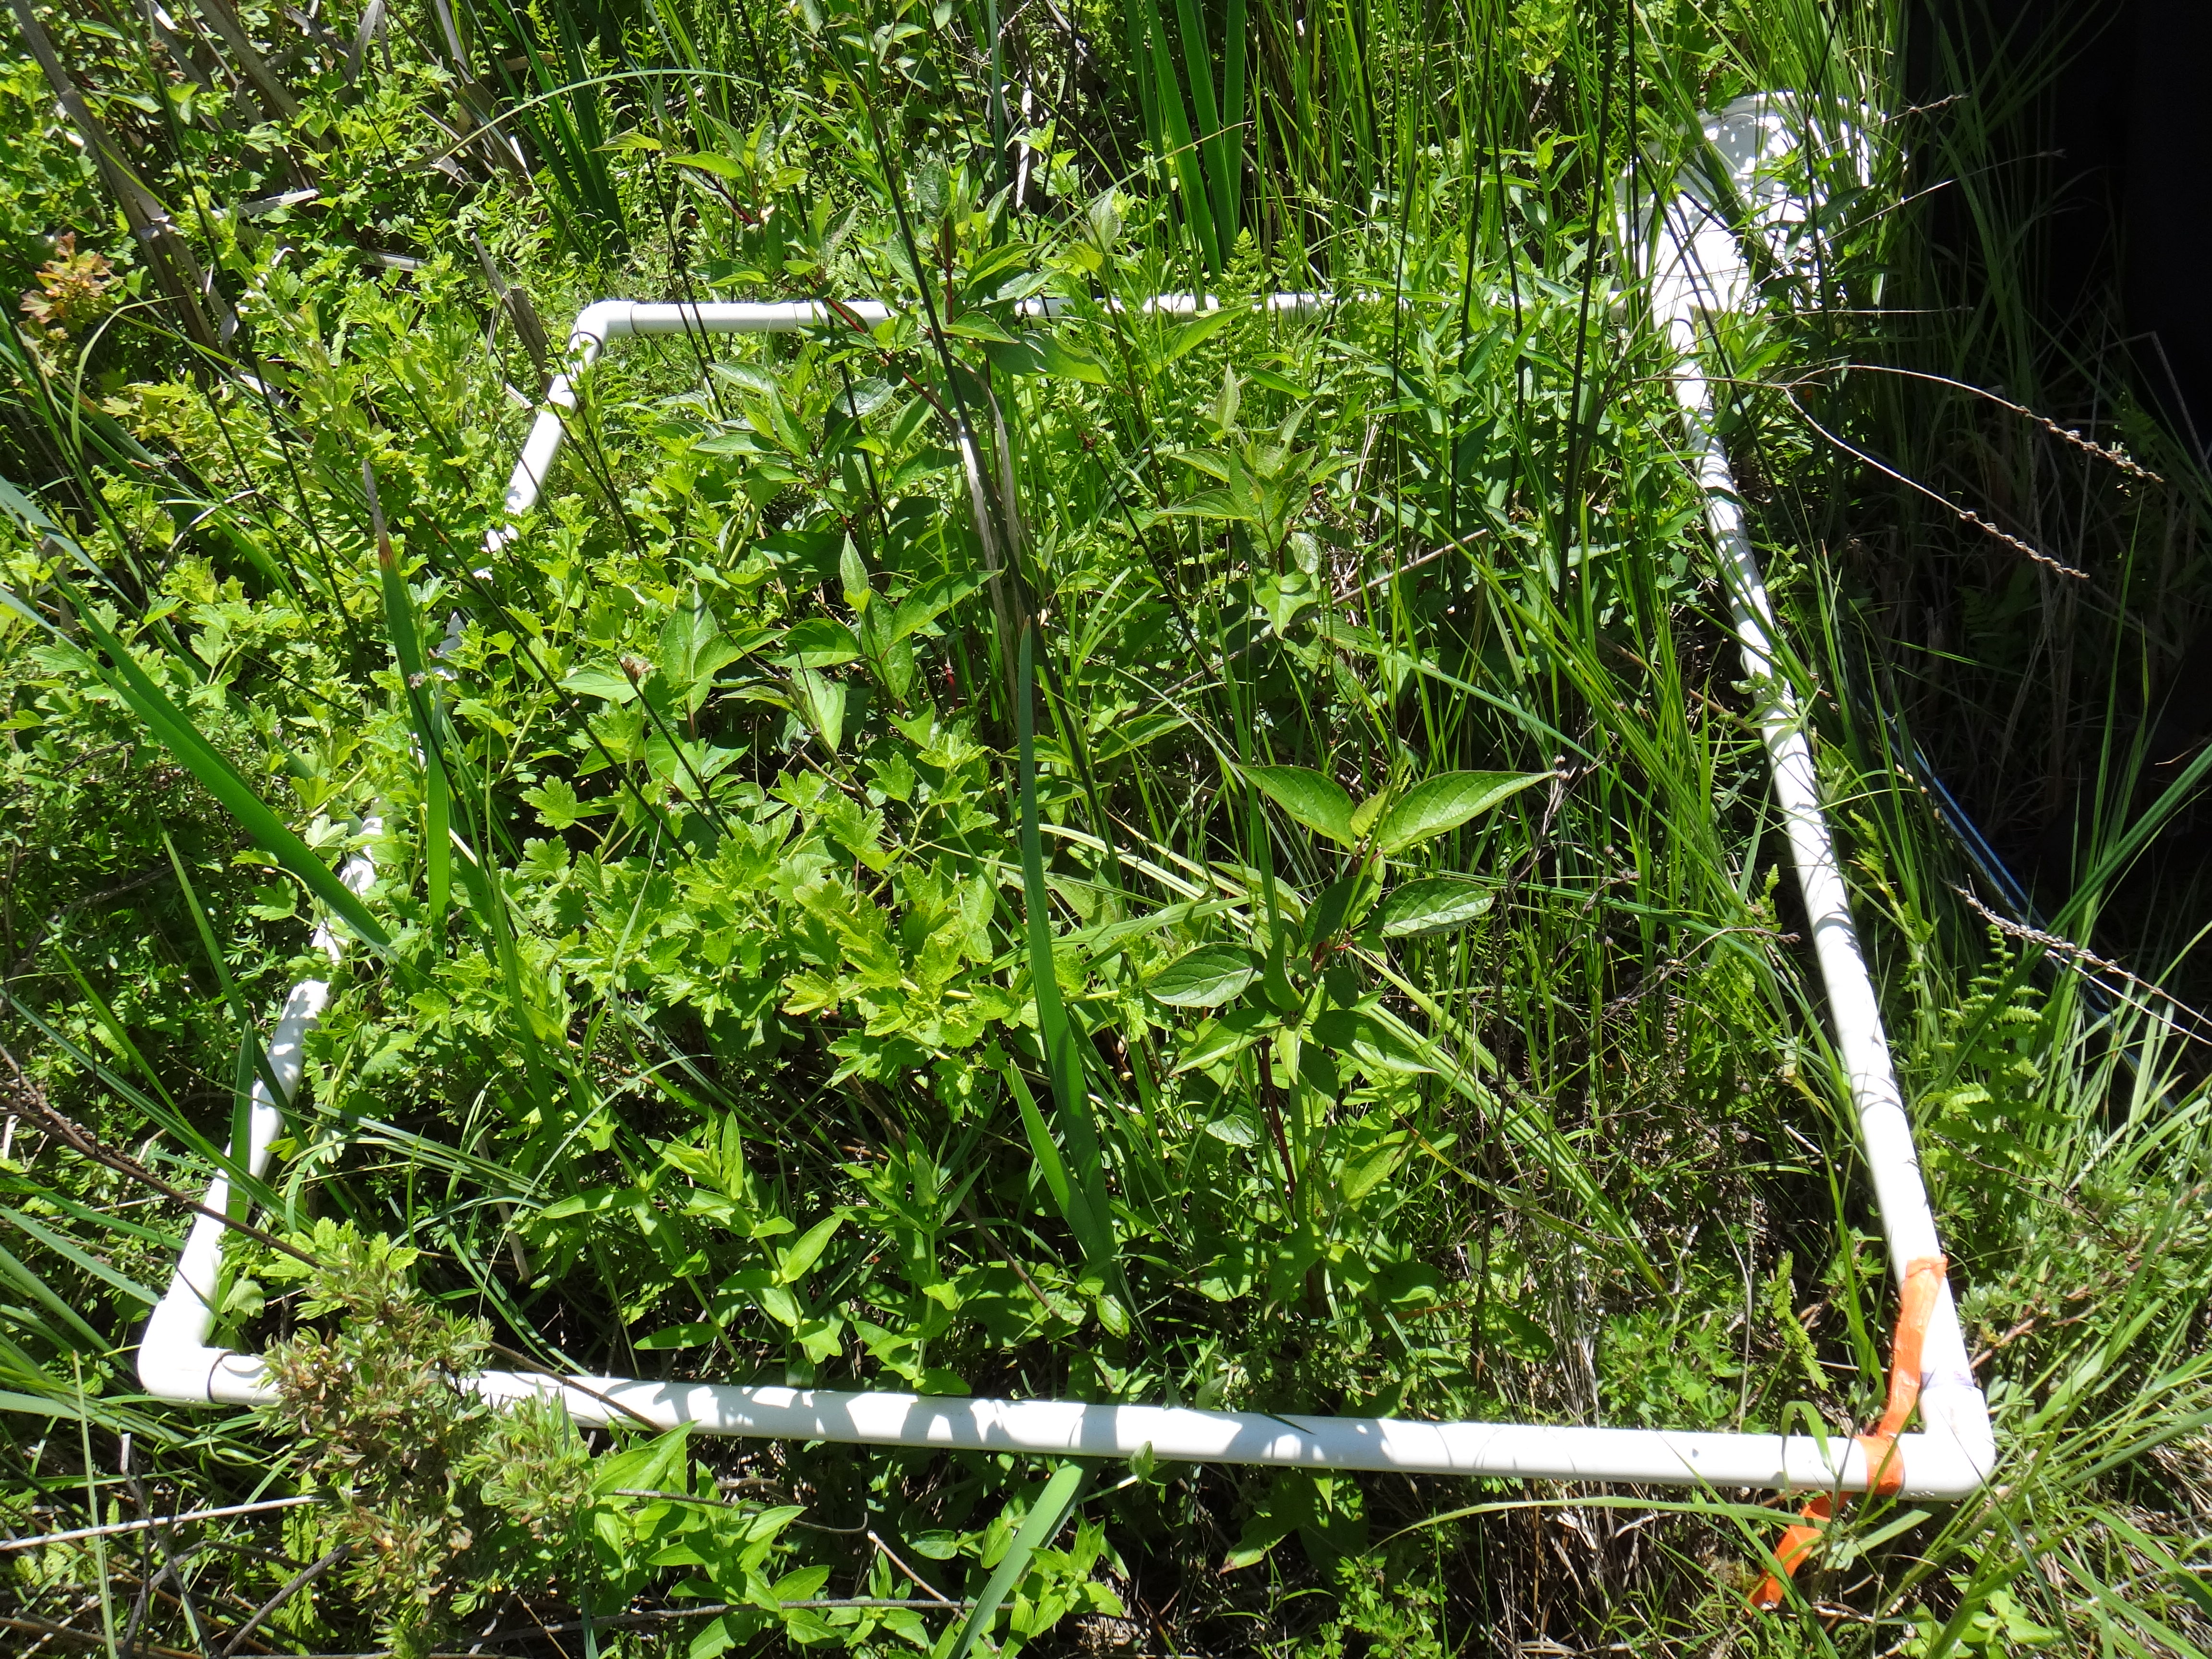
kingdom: Plantae
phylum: Tracheophyta
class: Magnoliopsida
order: Asterales
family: Campanulaceae
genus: Palustricodon
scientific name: Palustricodon aparinoides
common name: Bedstraw bellflower
